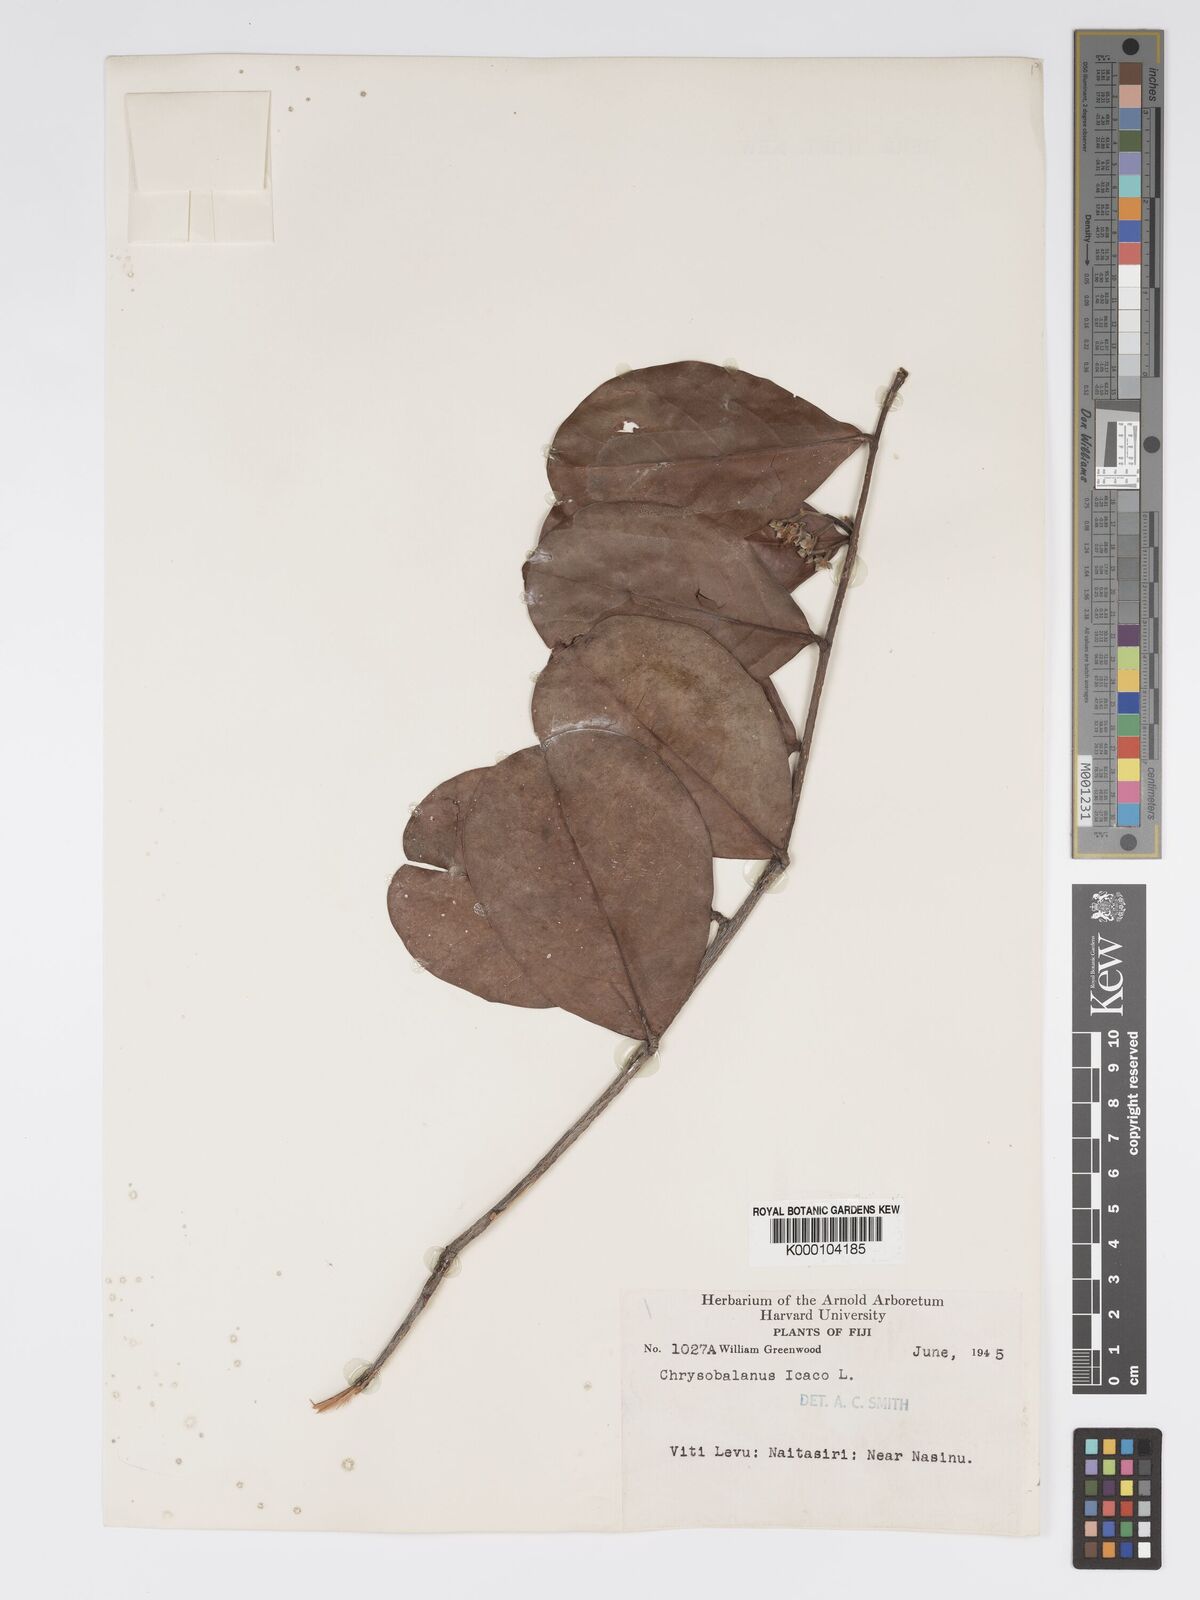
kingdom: Plantae
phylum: Tracheophyta
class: Magnoliopsida
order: Malpighiales
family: Chrysobalanaceae
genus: Chrysobalanus
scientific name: Chrysobalanus icaco
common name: Coco plum
